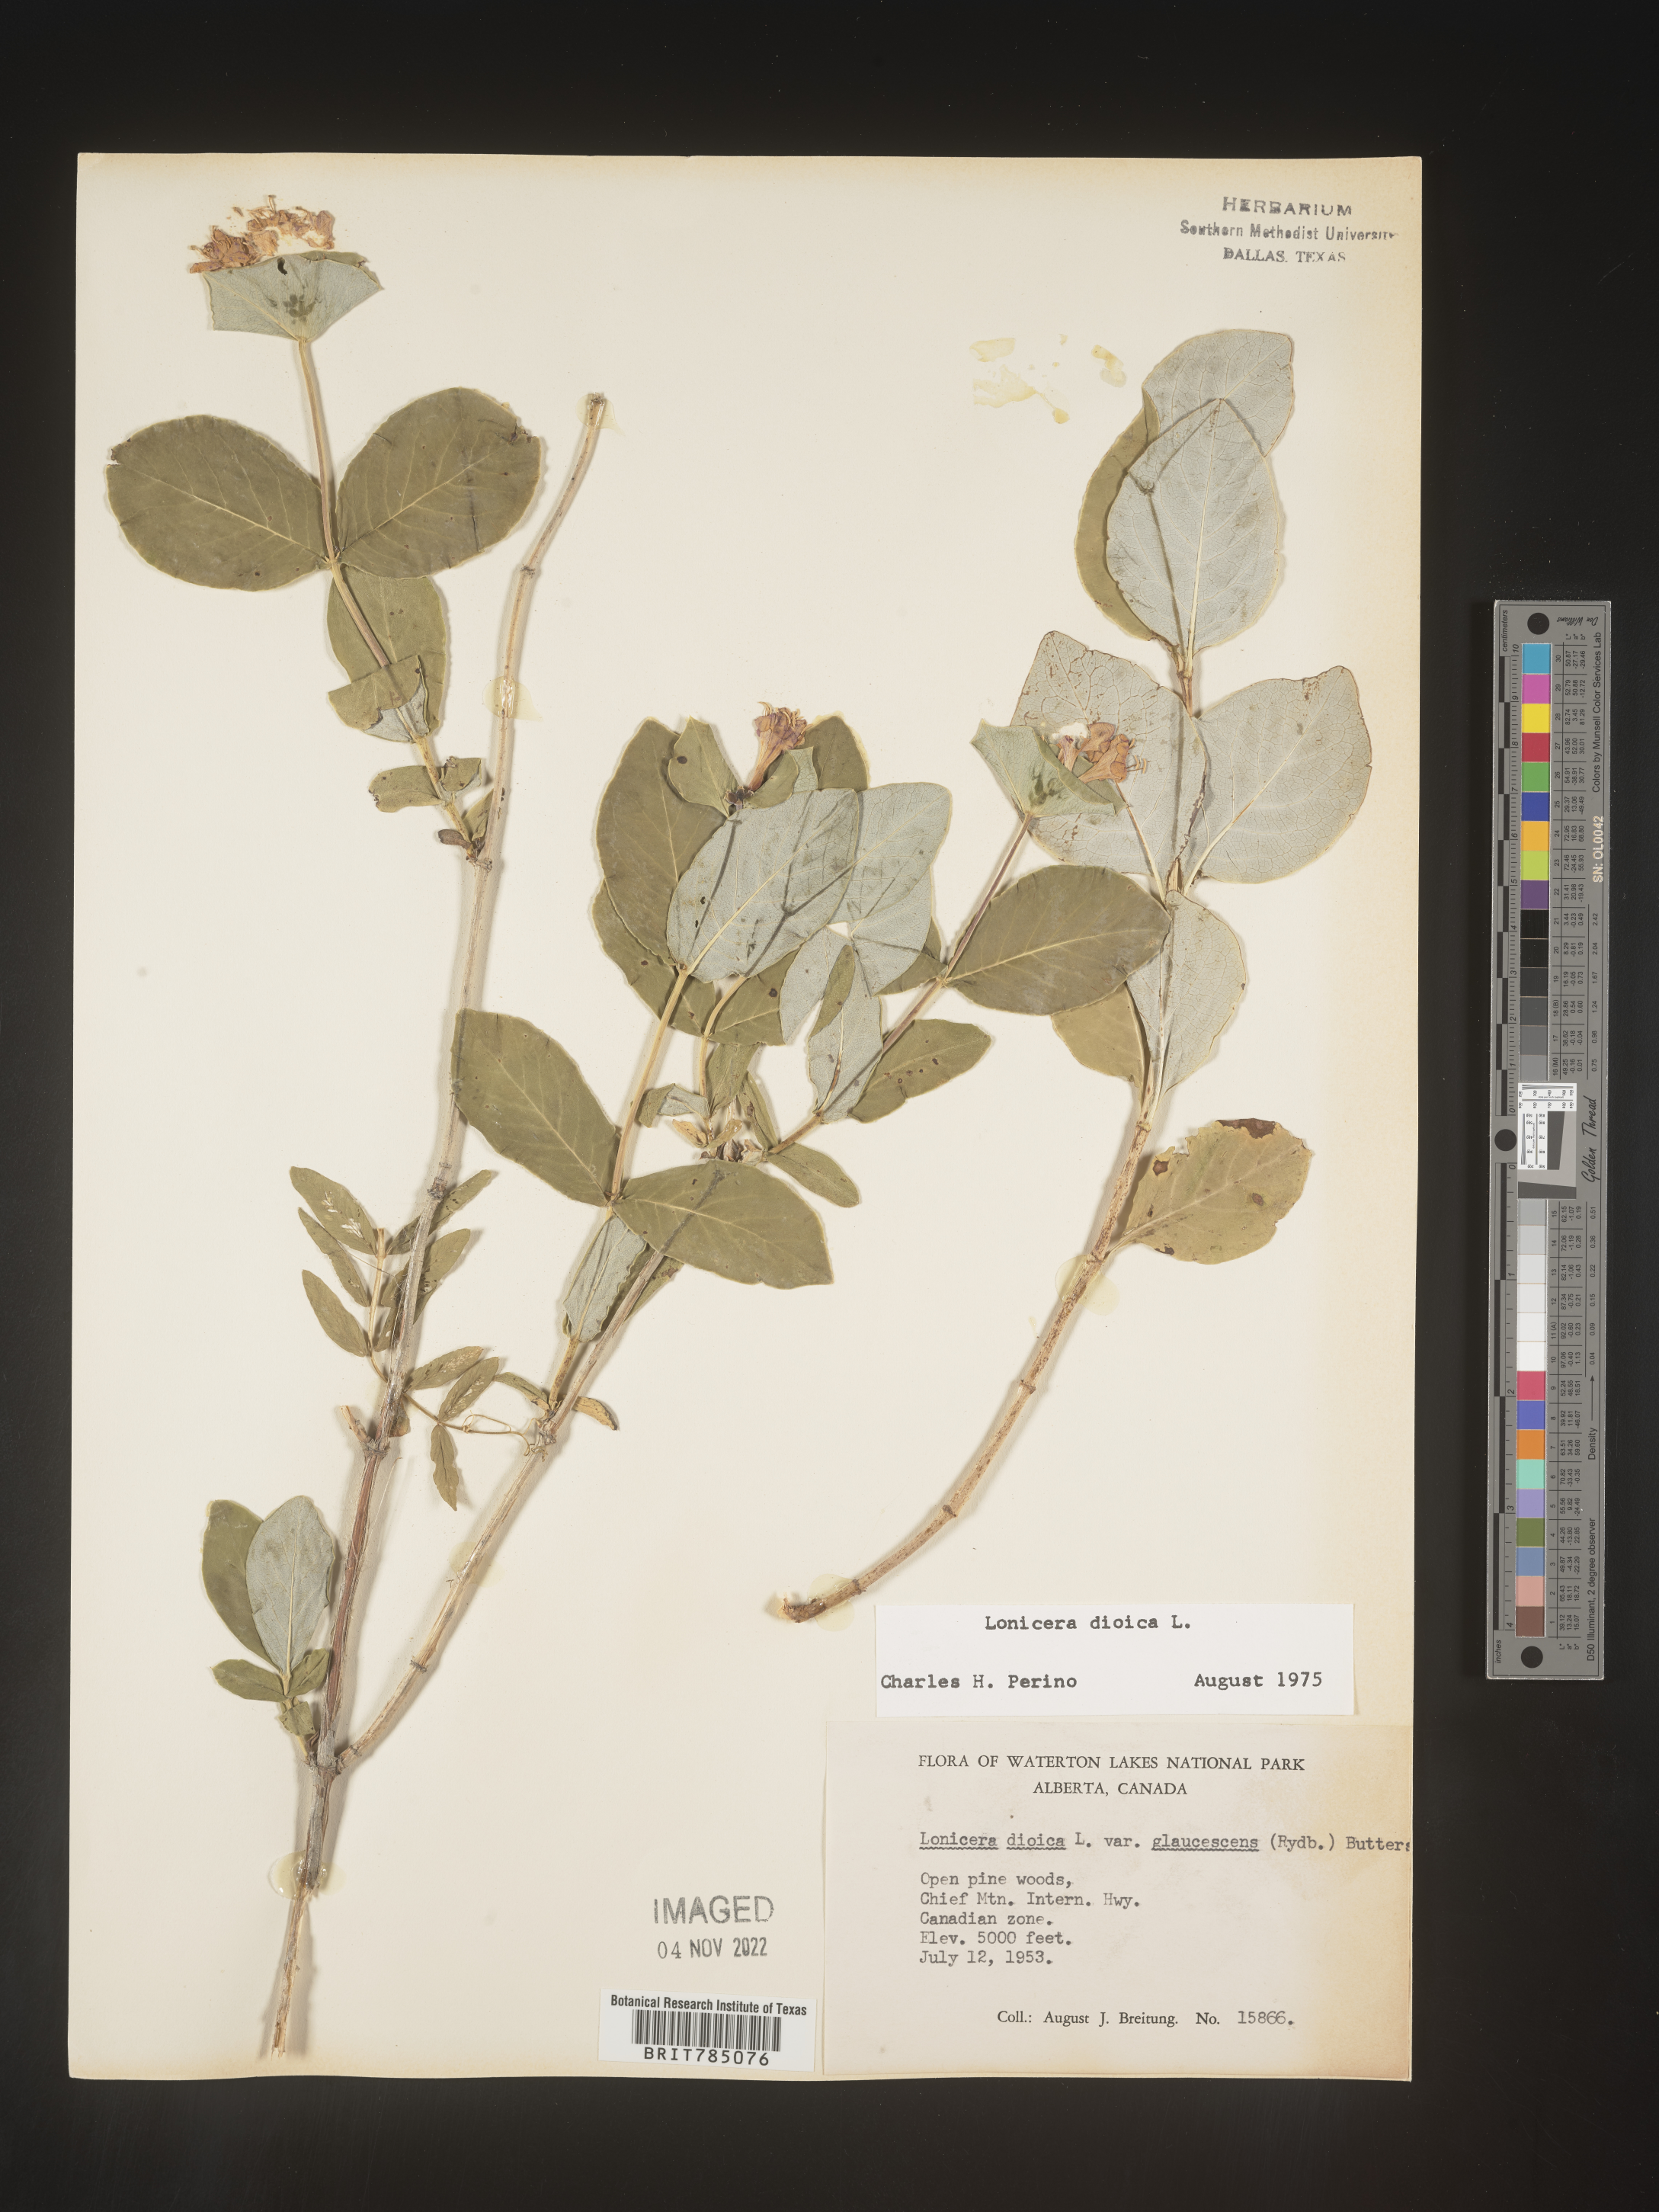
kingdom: Plantae
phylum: Tracheophyta
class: Magnoliopsida
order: Dipsacales
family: Caprifoliaceae
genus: Lonicera
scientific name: Lonicera dioica
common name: Limber honeysuckle
